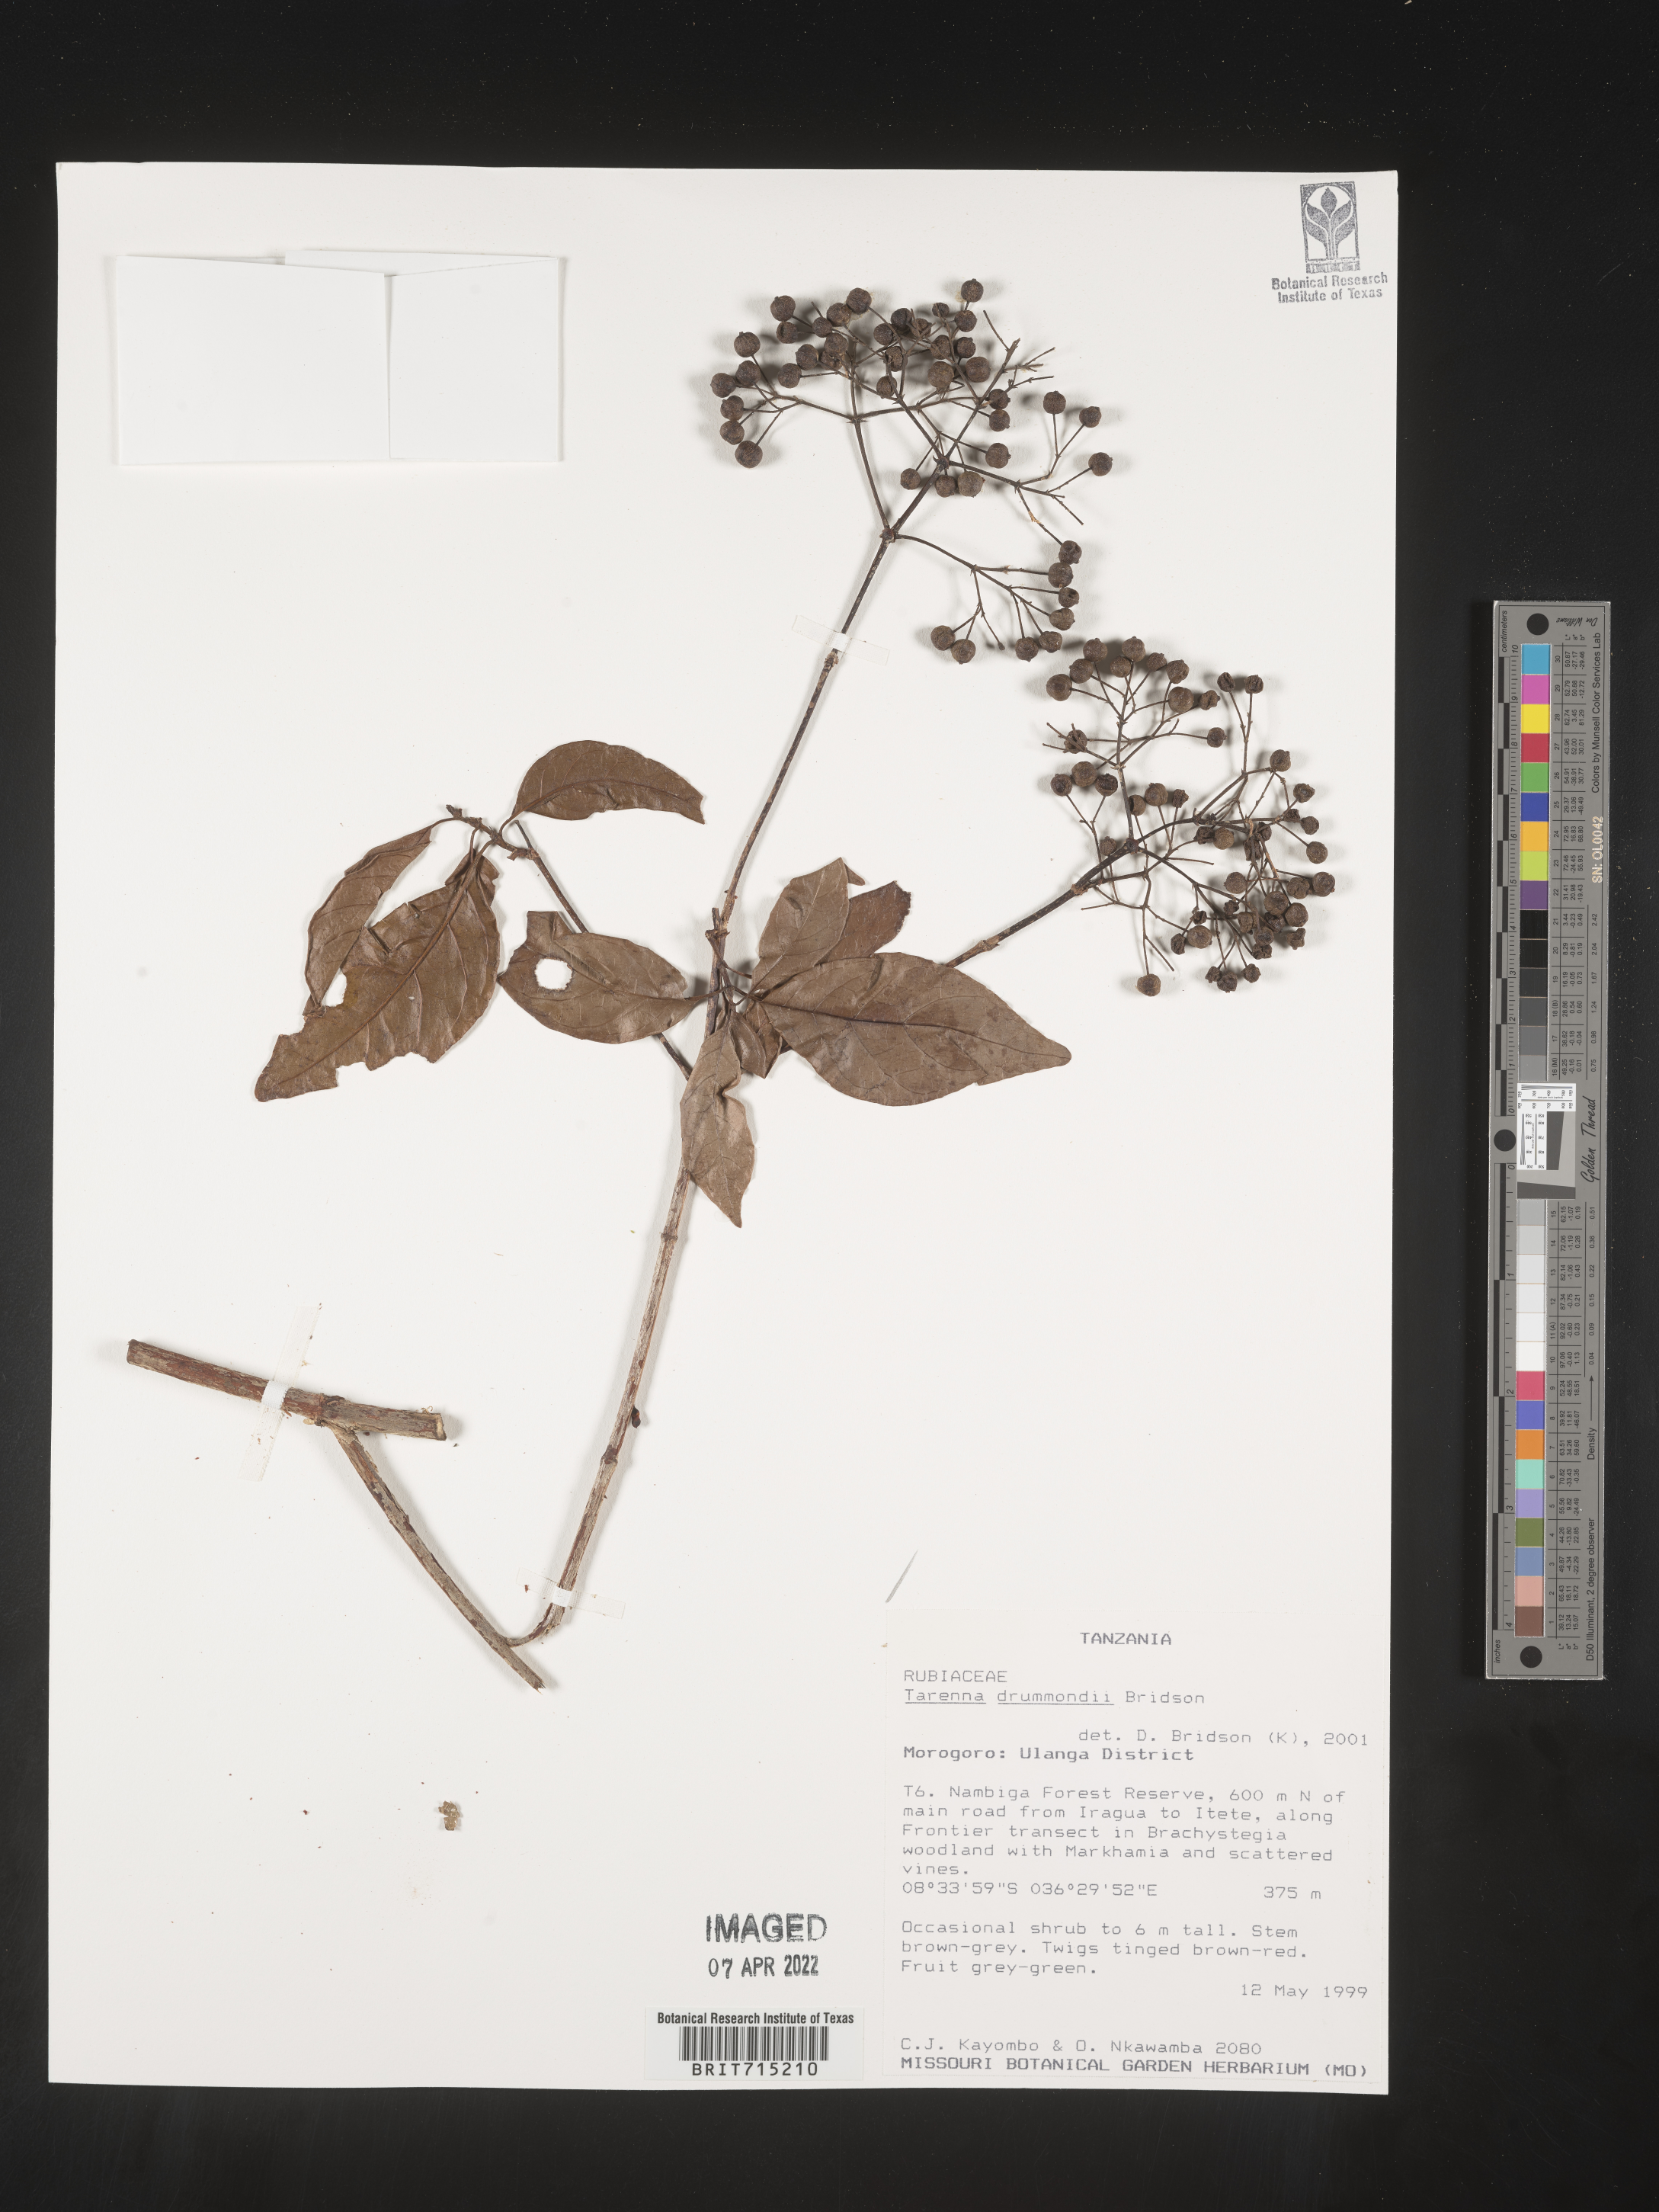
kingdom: Plantae
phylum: Tracheophyta
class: Magnoliopsida
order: Gentianales
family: Rubiaceae
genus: Tarenna
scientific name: Tarenna
